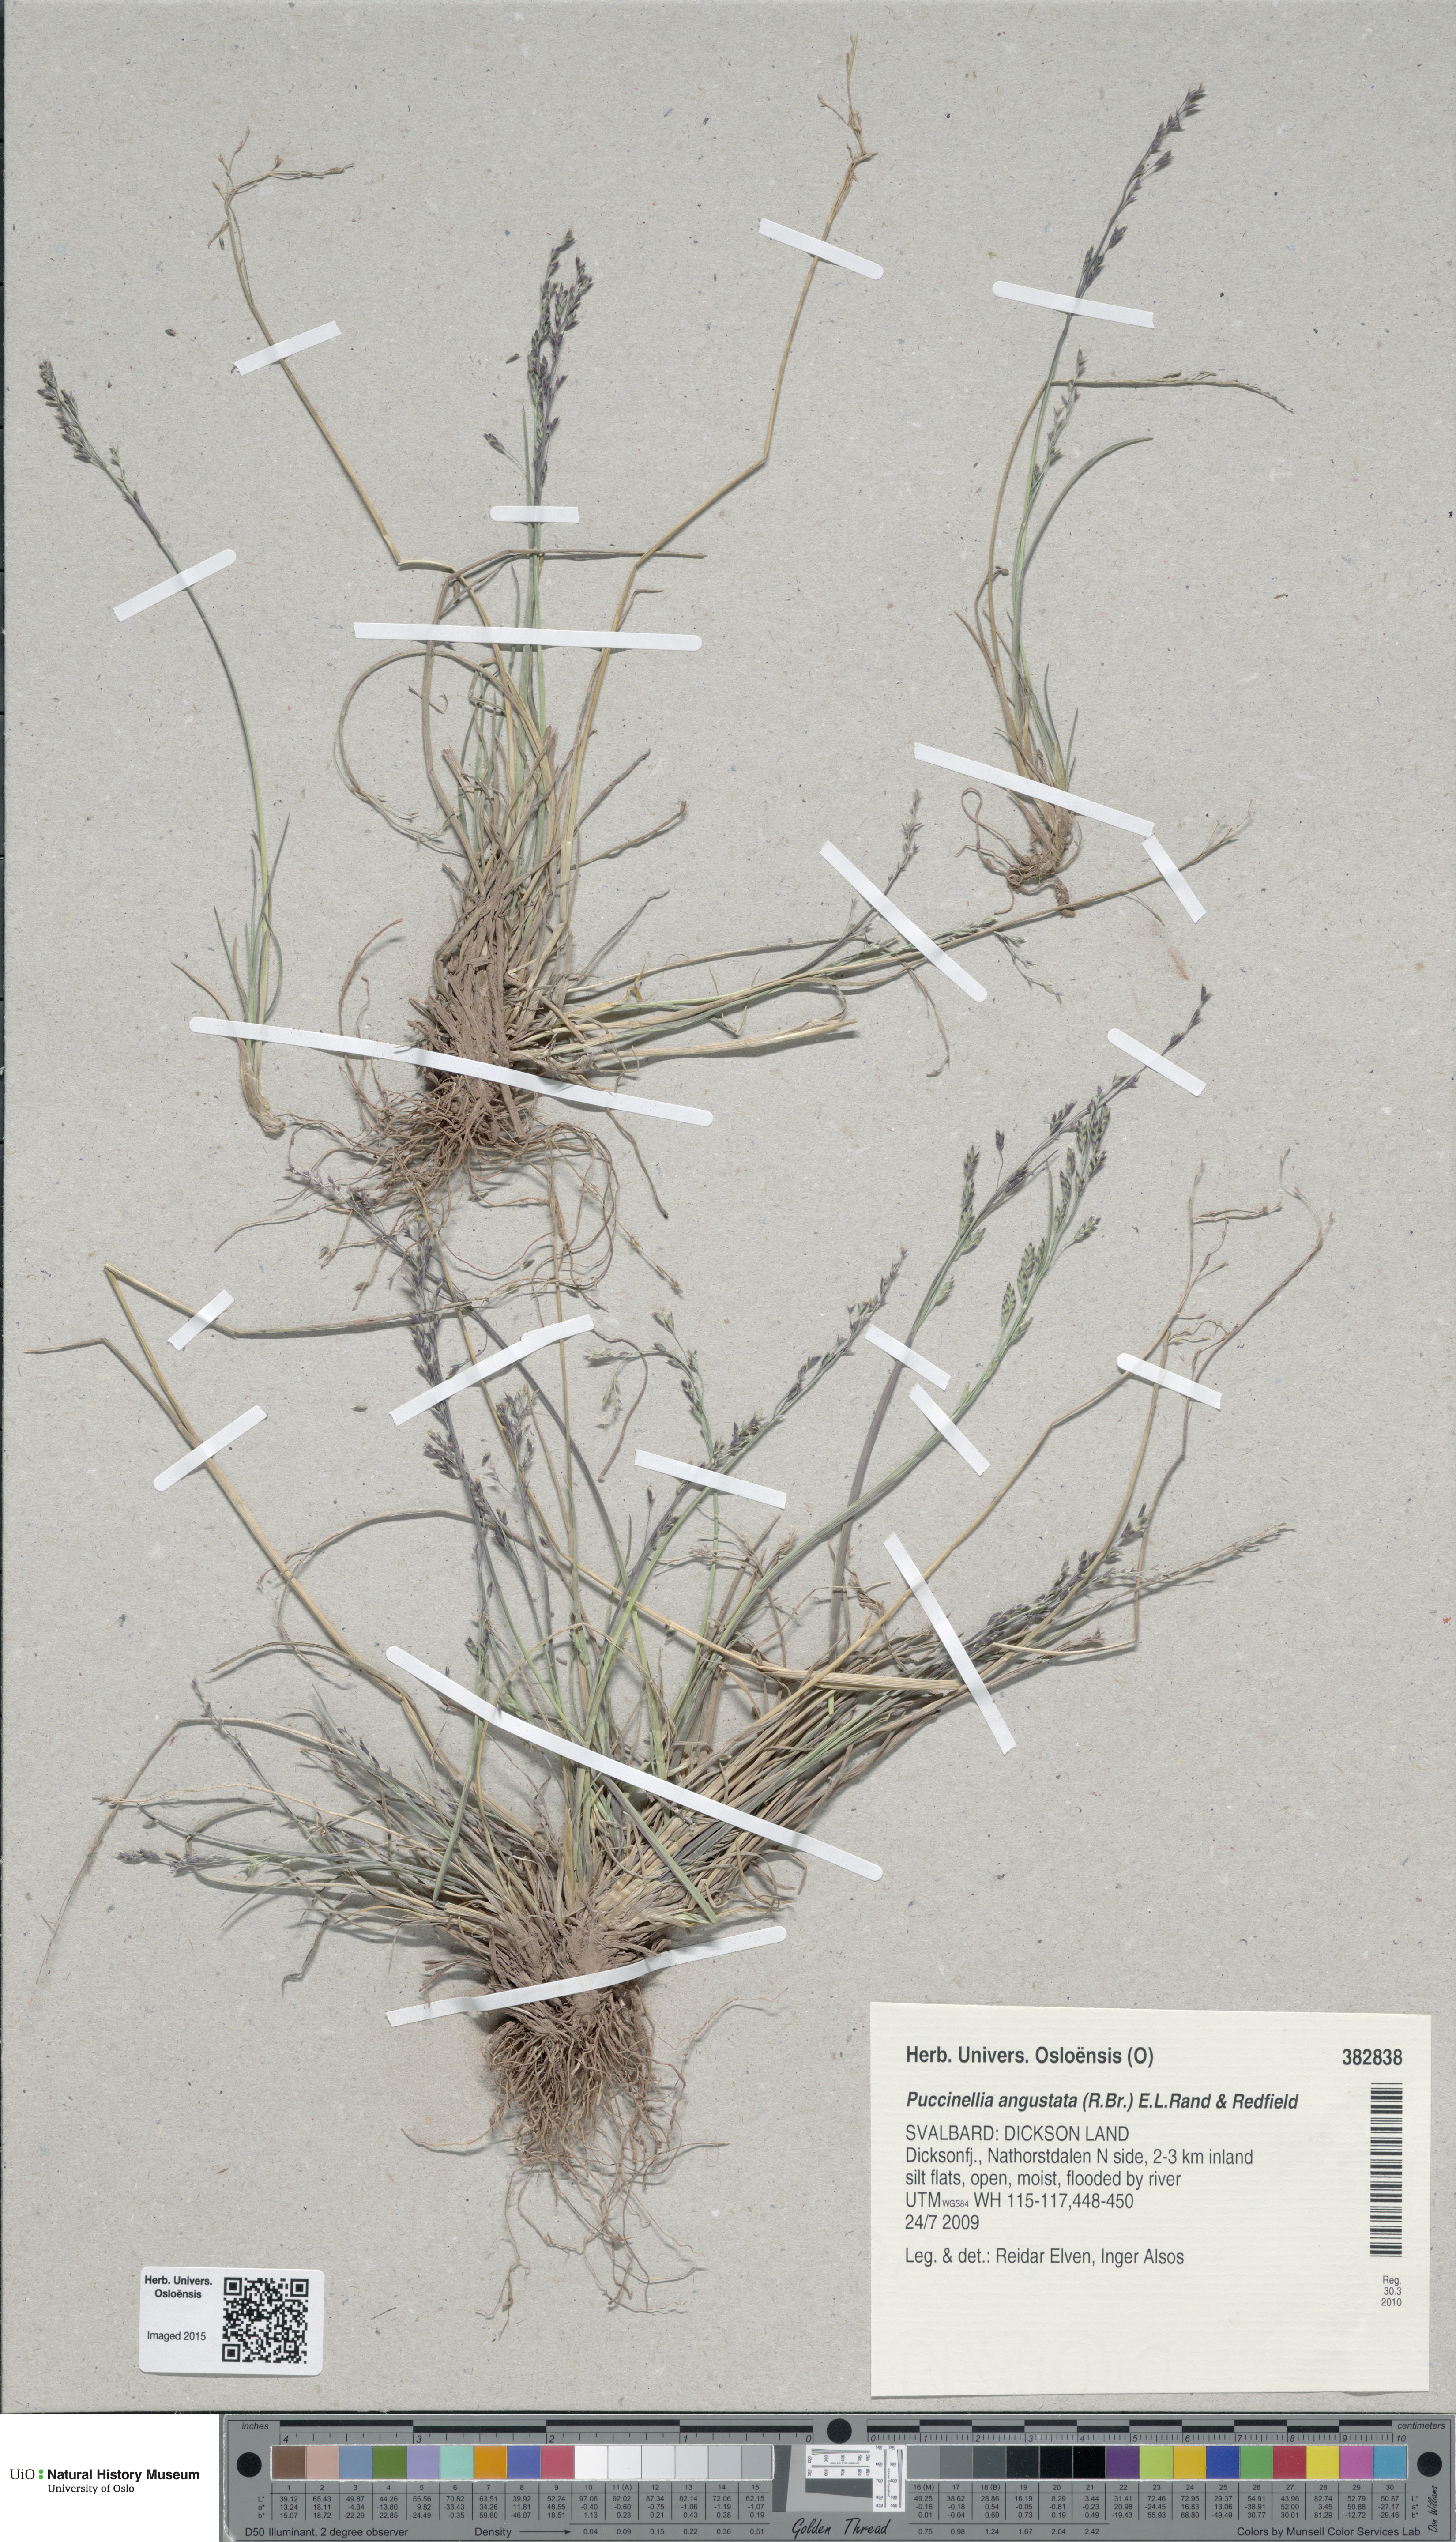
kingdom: Plantae
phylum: Tracheophyta
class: Liliopsida
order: Poales
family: Poaceae
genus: Puccinellia
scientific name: Puccinellia angustata
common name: Narrow alkaligrass
